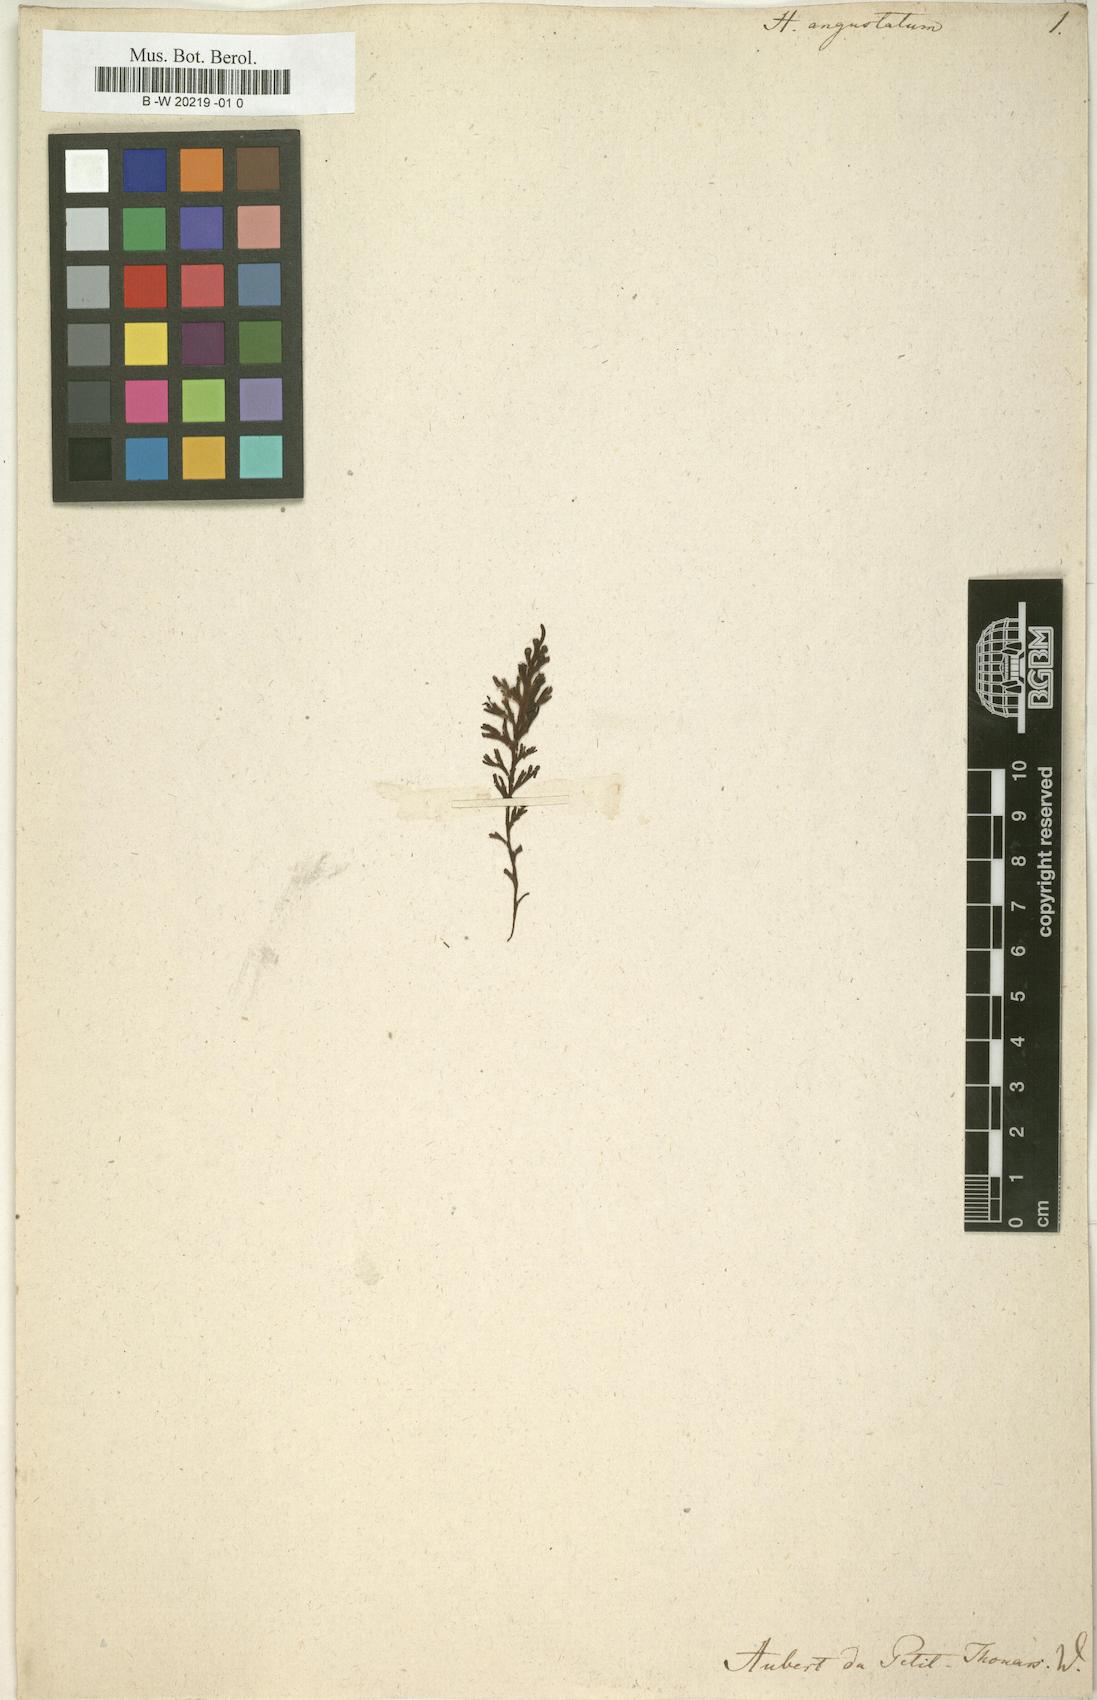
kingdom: Plantae
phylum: Tracheophyta
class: Polypodiopsida
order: Hymenophyllales
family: Hymenophyllaceae
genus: Hymenophyllum
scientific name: Hymenophyllum hirsutum
